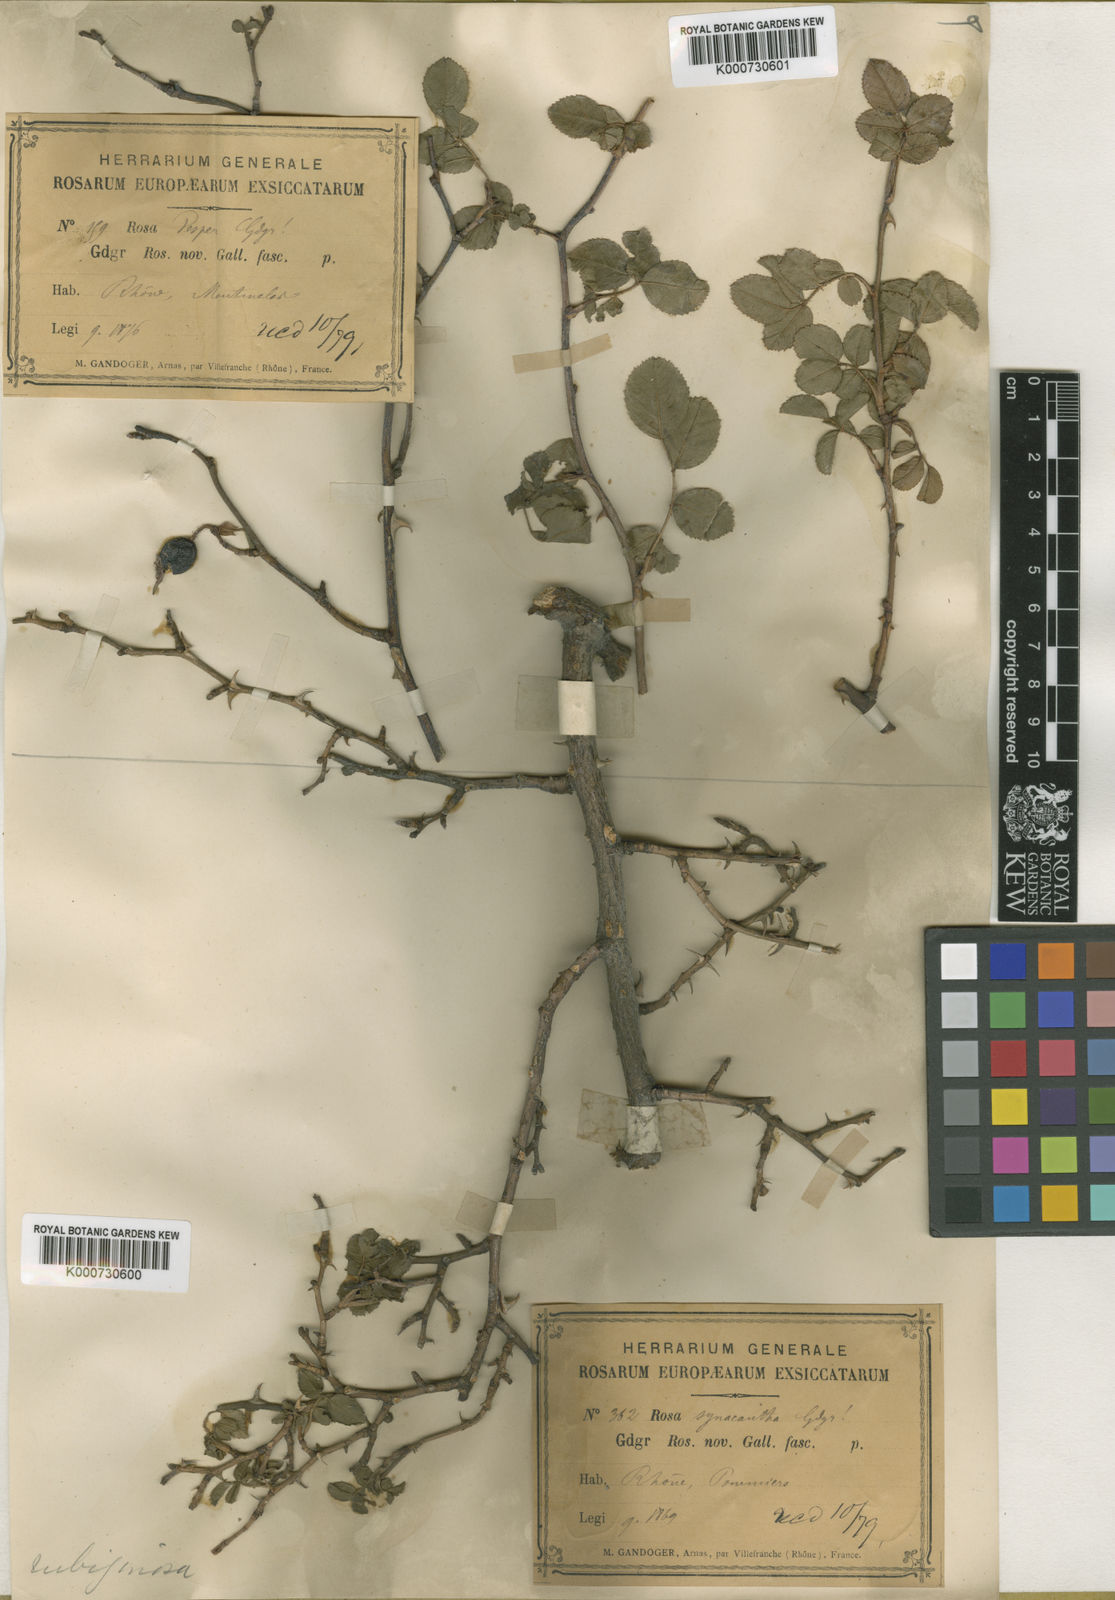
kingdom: Plantae
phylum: Tracheophyta
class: Magnoliopsida
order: Rosales
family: Rosaceae
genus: Rosa
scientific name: Rosa rubiginosa
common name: Sweet-briar
